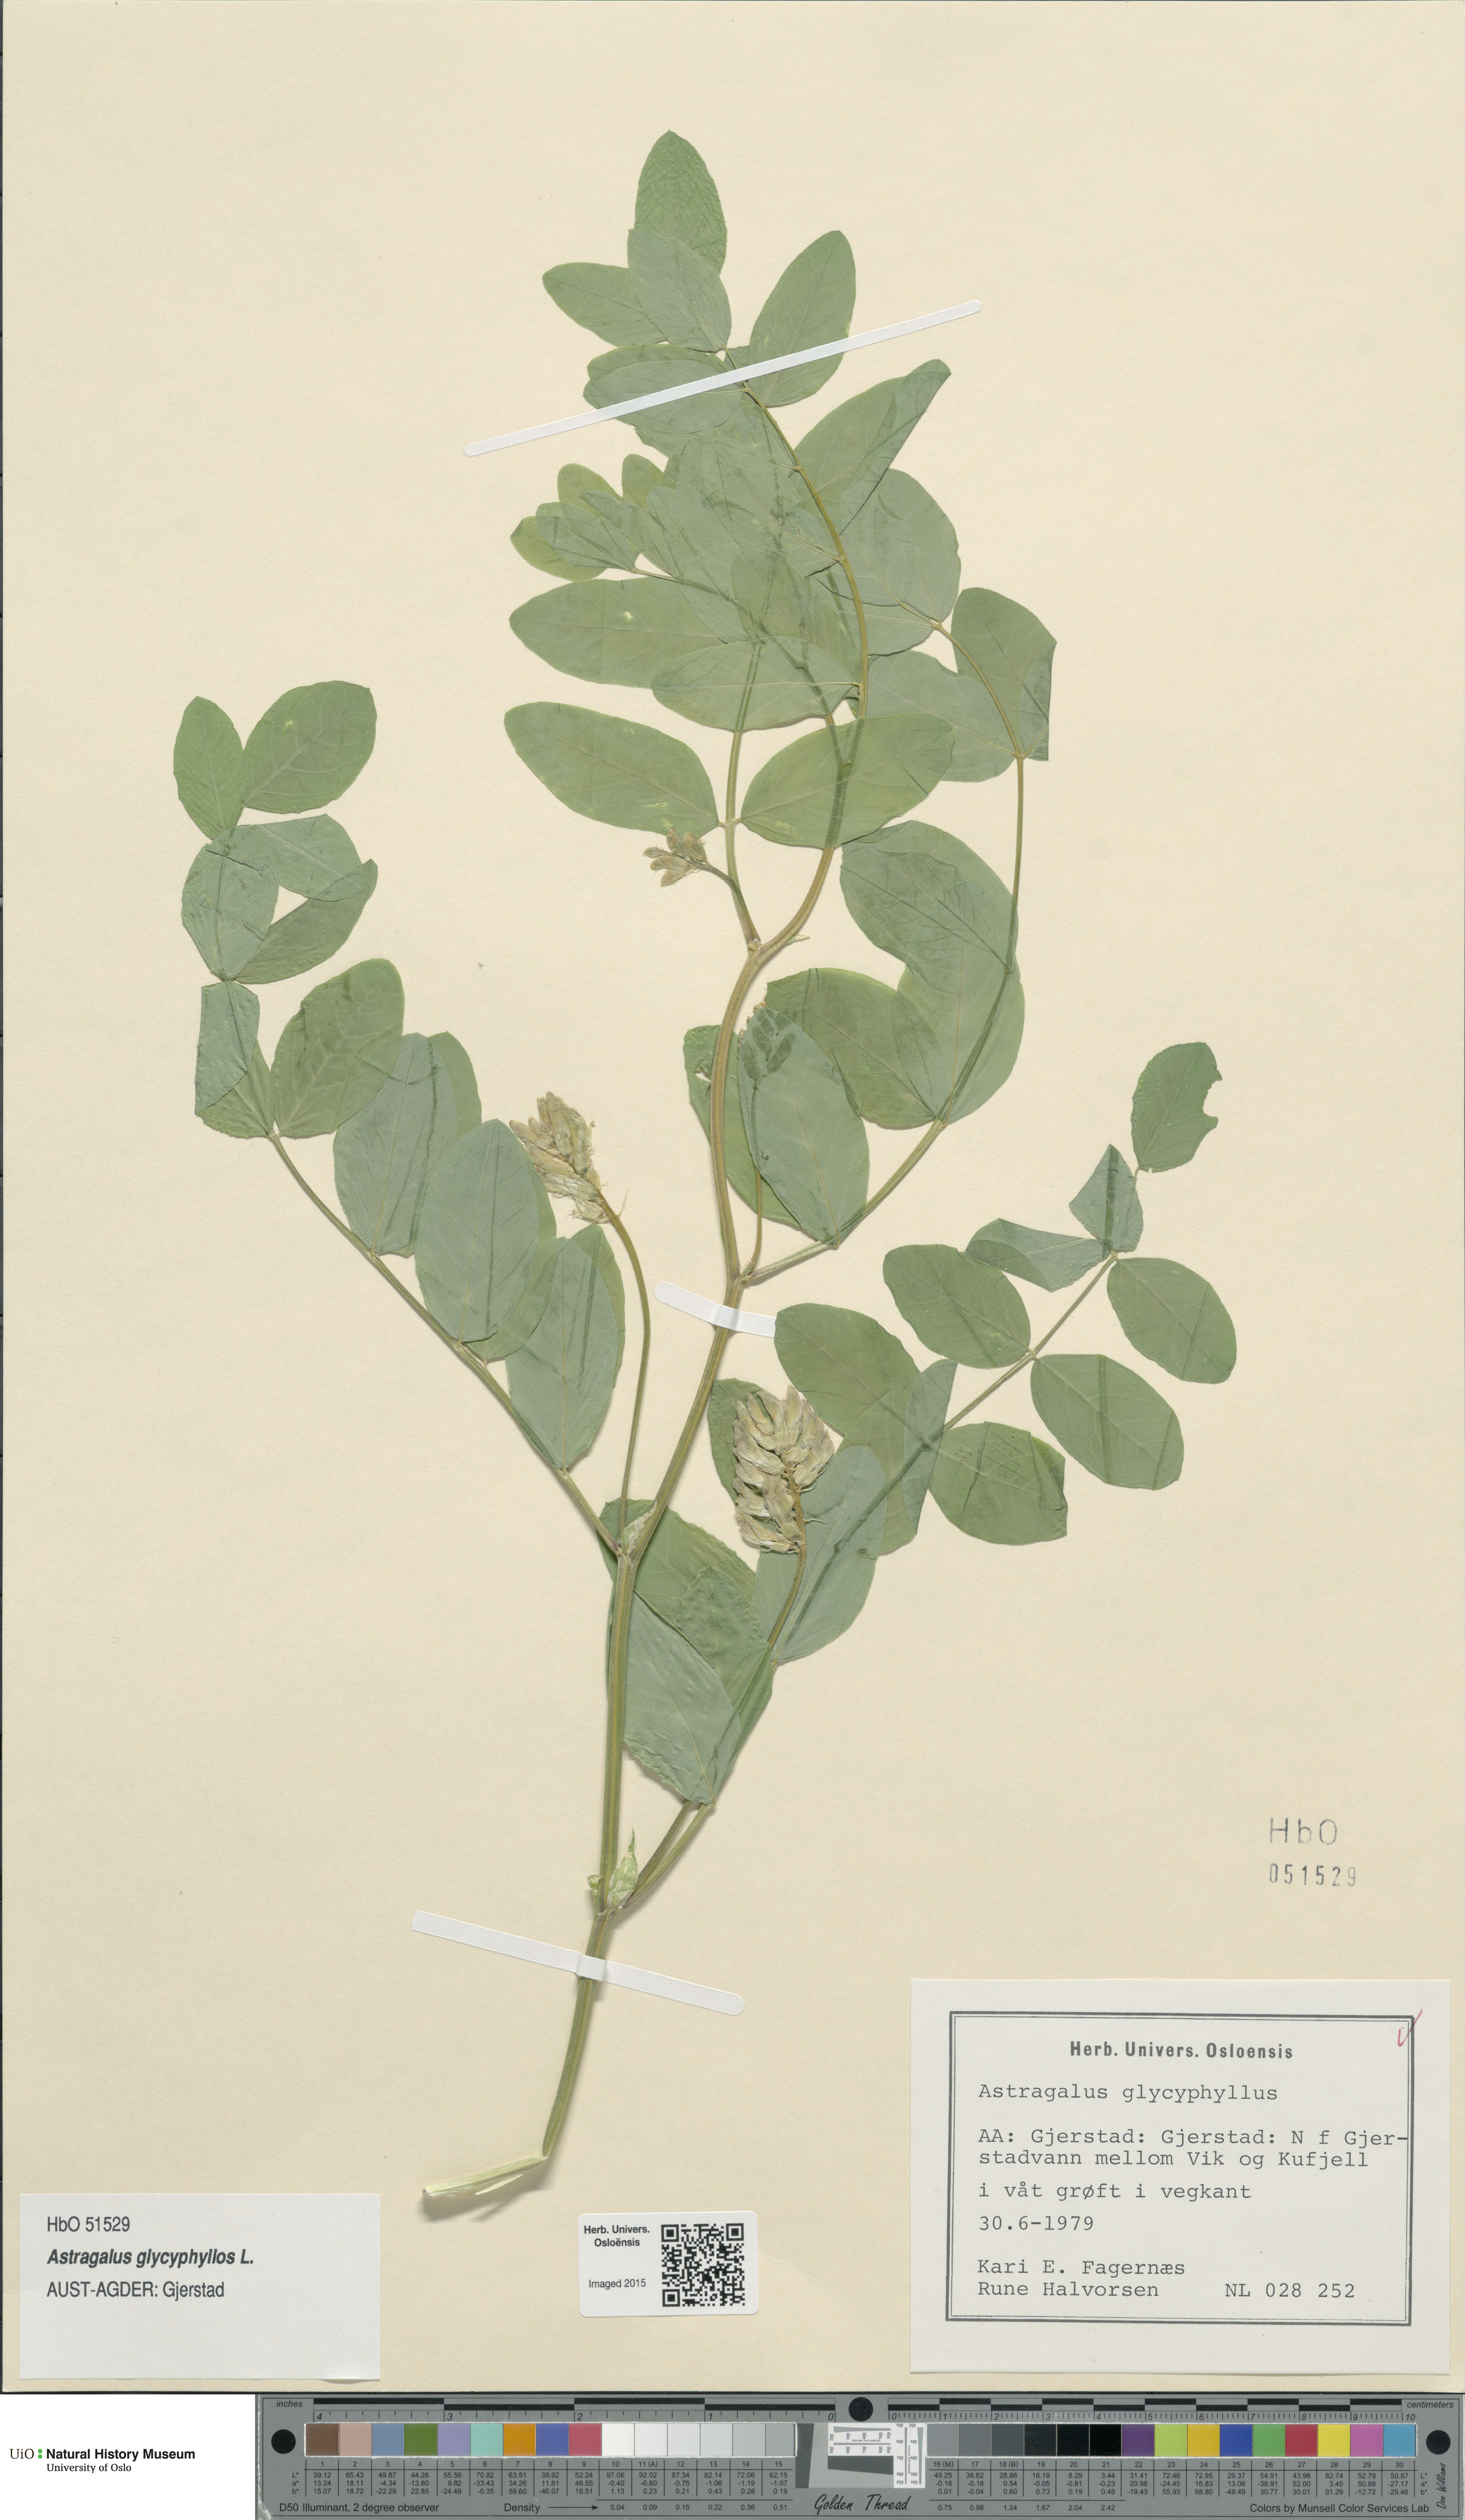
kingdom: Plantae
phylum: Tracheophyta
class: Magnoliopsida
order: Fabales
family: Fabaceae
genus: Astragalus
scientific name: Astragalus glycyphyllos
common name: Wild liquorice
